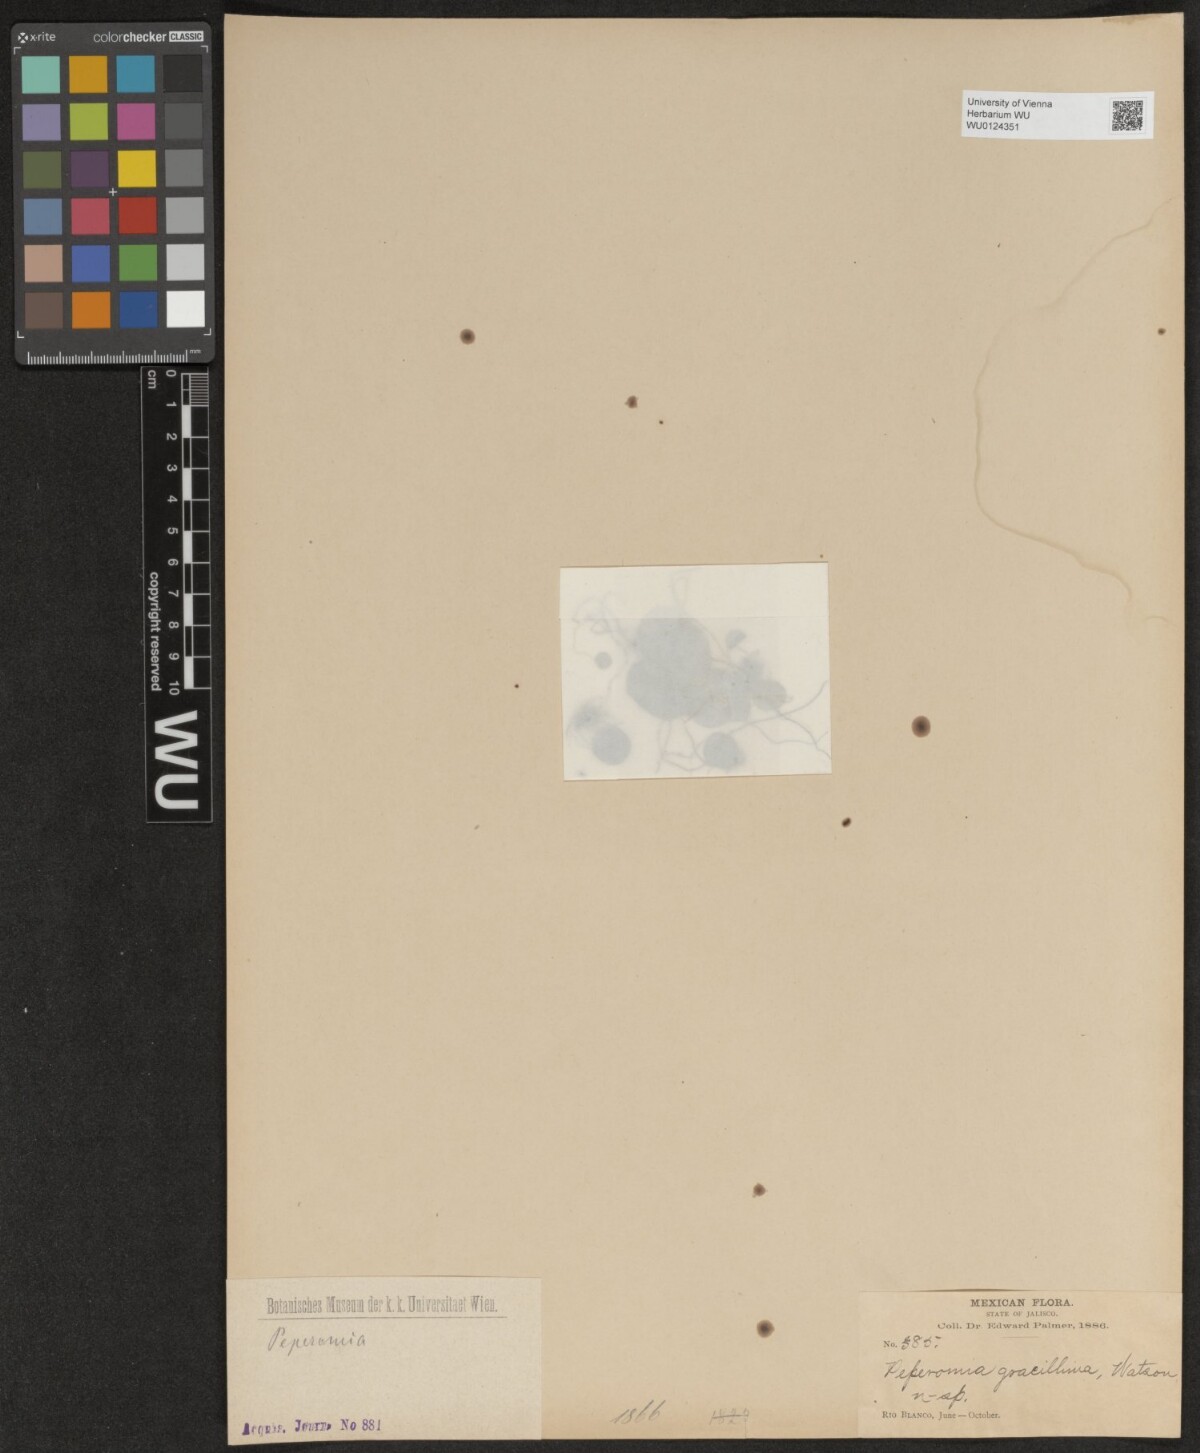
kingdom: Plantae
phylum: Tracheophyta
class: Magnoliopsida
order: Piperales
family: Piperaceae
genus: Peperomia
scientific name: Peperomia gracillima
